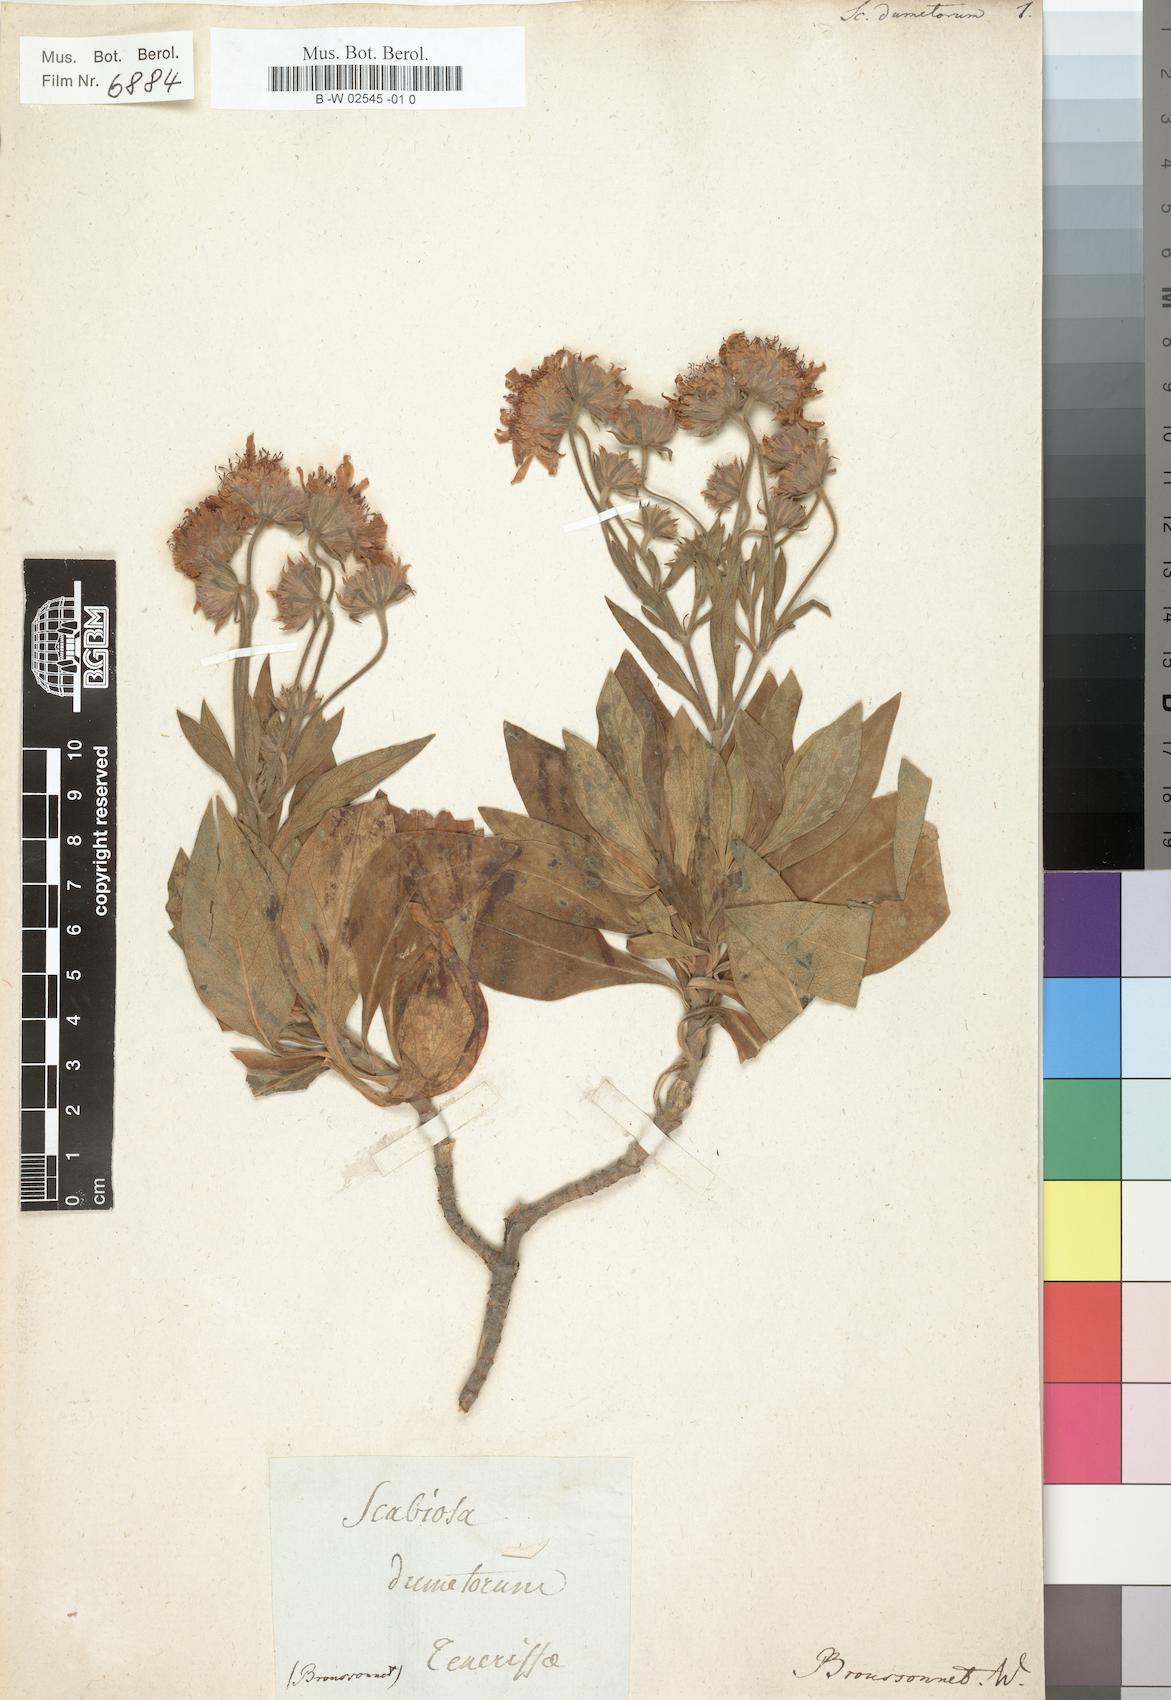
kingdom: Plantae
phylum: Tracheophyta
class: Magnoliopsida
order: Dipsacales
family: Caprifoliaceae
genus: Pterocephalus
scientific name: Pterocephalus dumetorus
